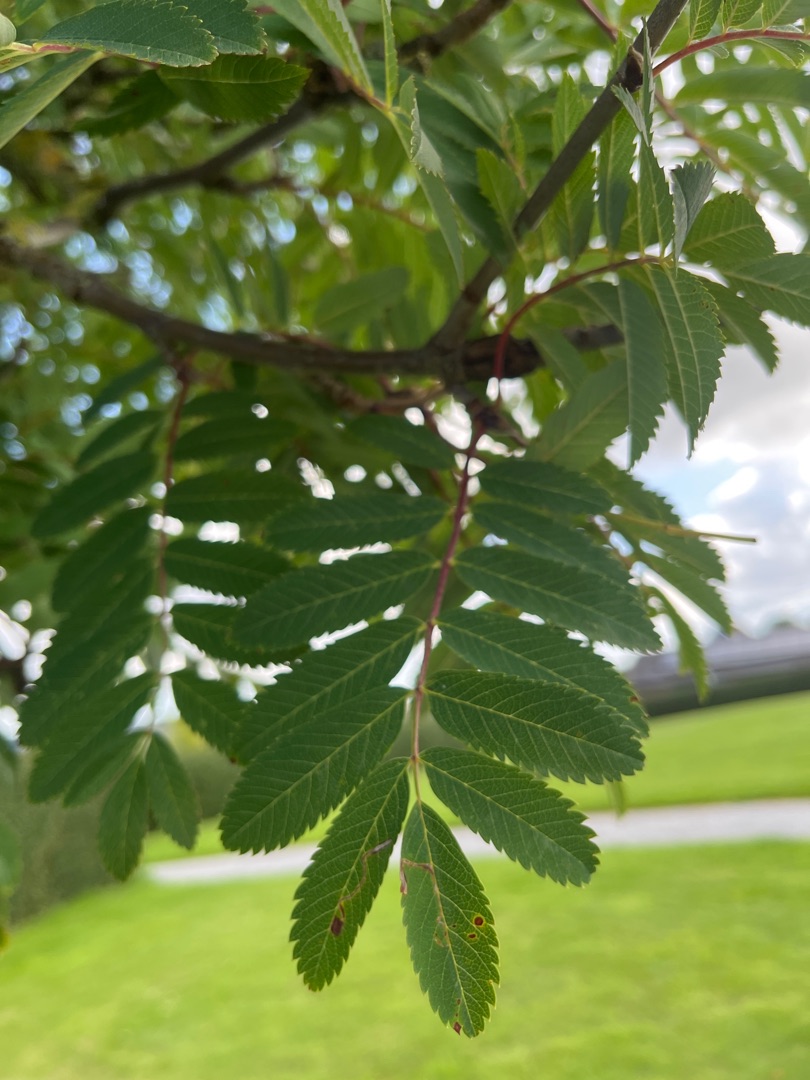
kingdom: Plantae
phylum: Tracheophyta
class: Magnoliopsida
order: Rosales
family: Rosaceae
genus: Sorbus
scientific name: Sorbus aucuparia
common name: Almindelig røn
